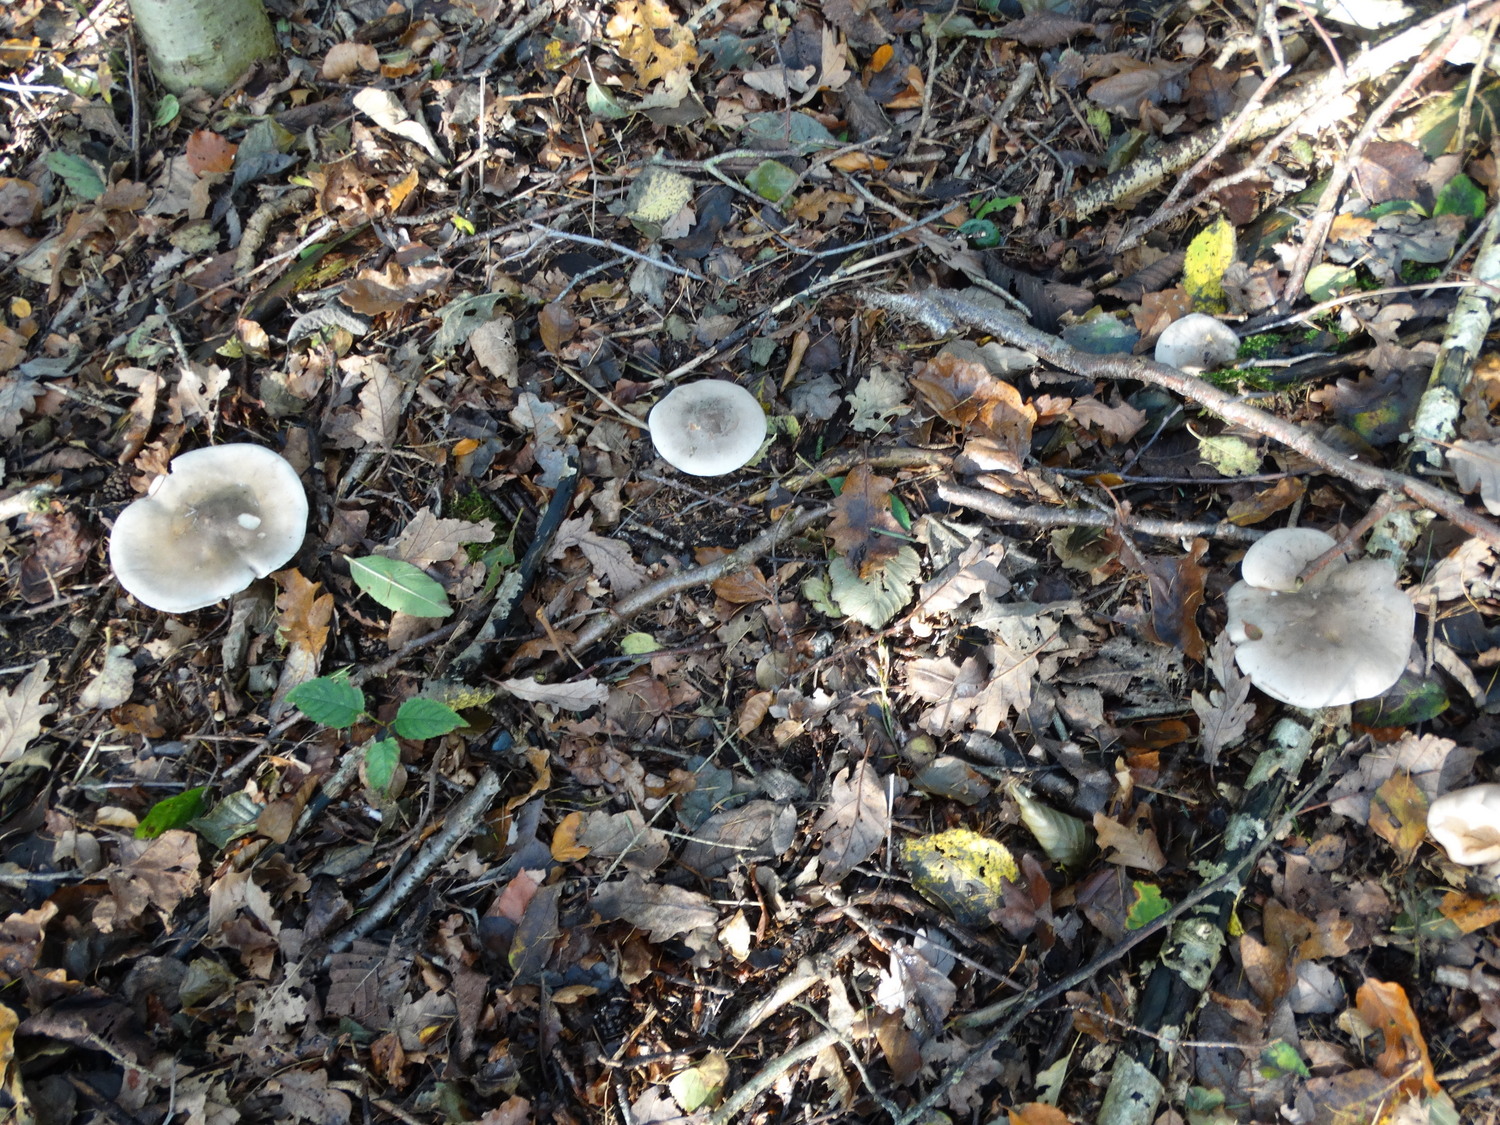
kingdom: Fungi
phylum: Basidiomycota
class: Agaricomycetes
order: Agaricales
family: Tricholomataceae
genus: Clitocybe
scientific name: Clitocybe nebularis
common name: tåge-tragthat
